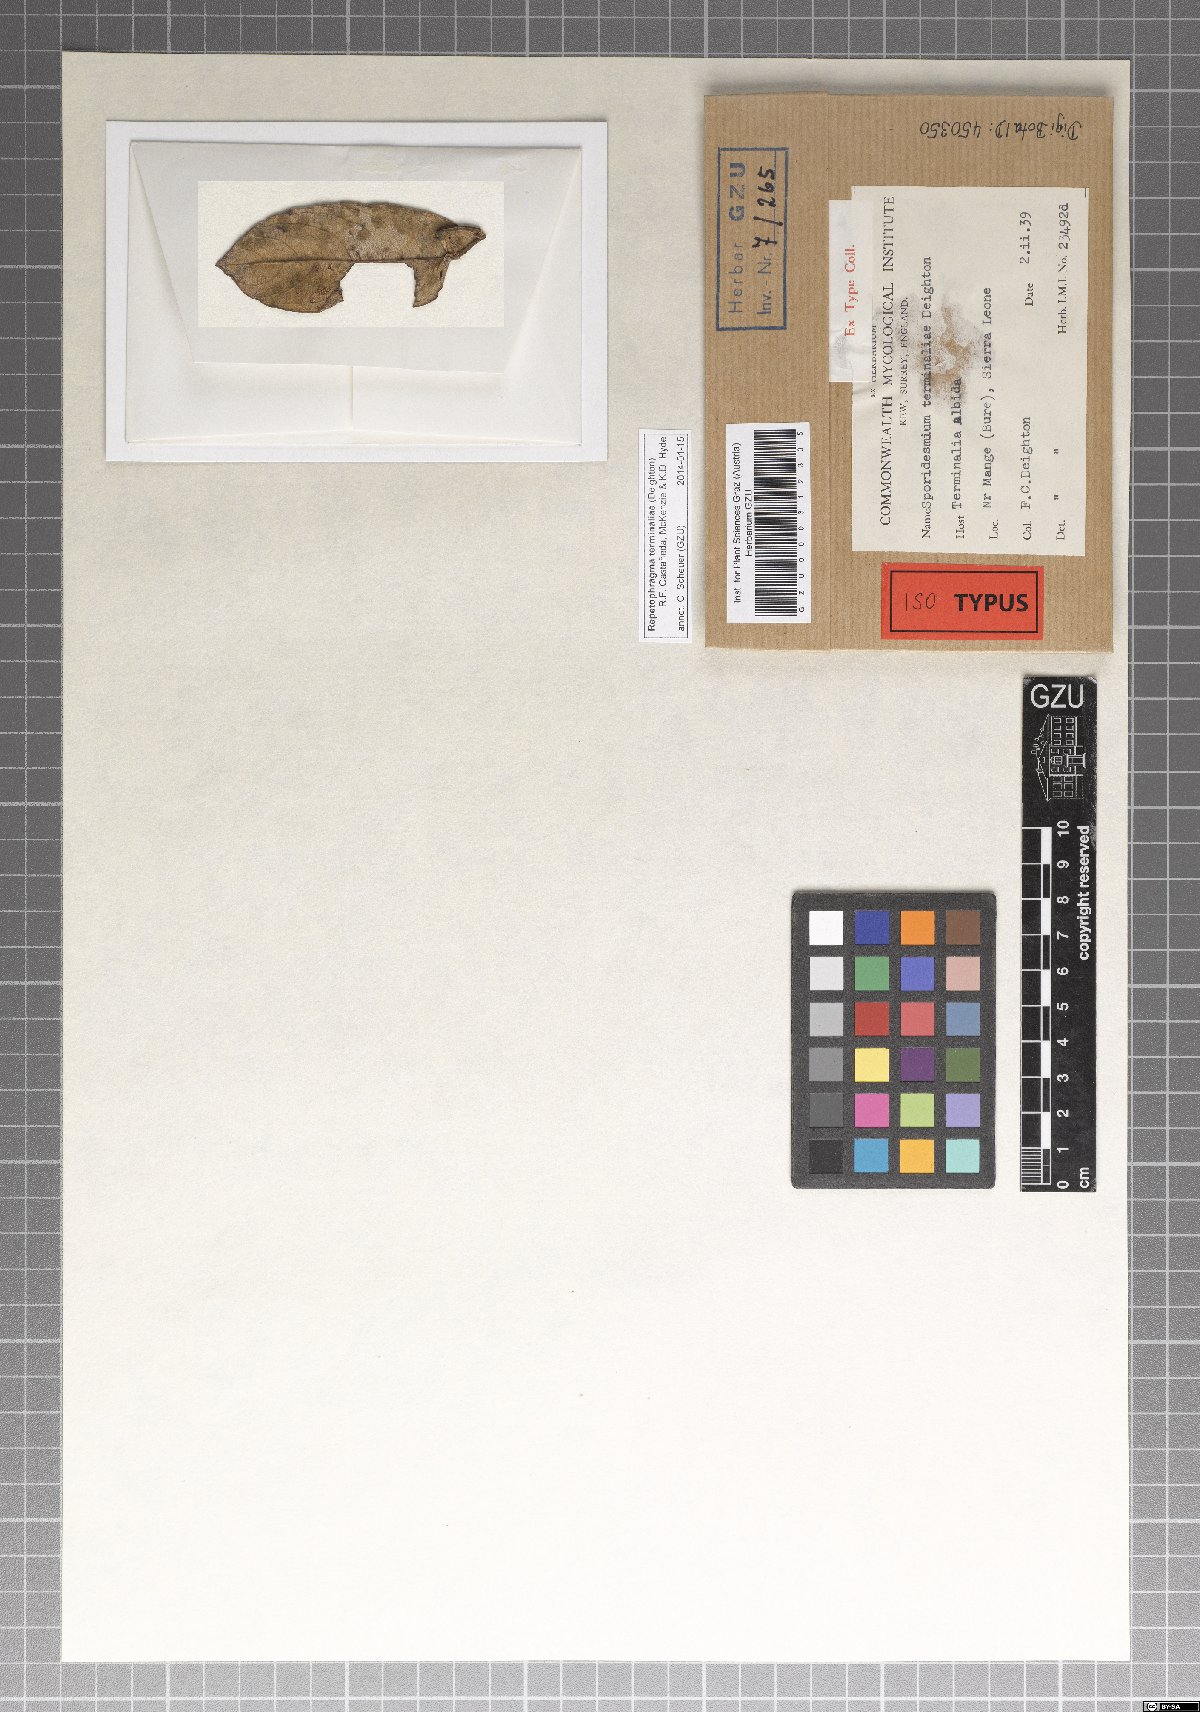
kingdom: Fungi
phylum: Ascomycota
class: Dothideomycetes
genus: Repetophragma
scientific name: Repetophragma terminaliae
